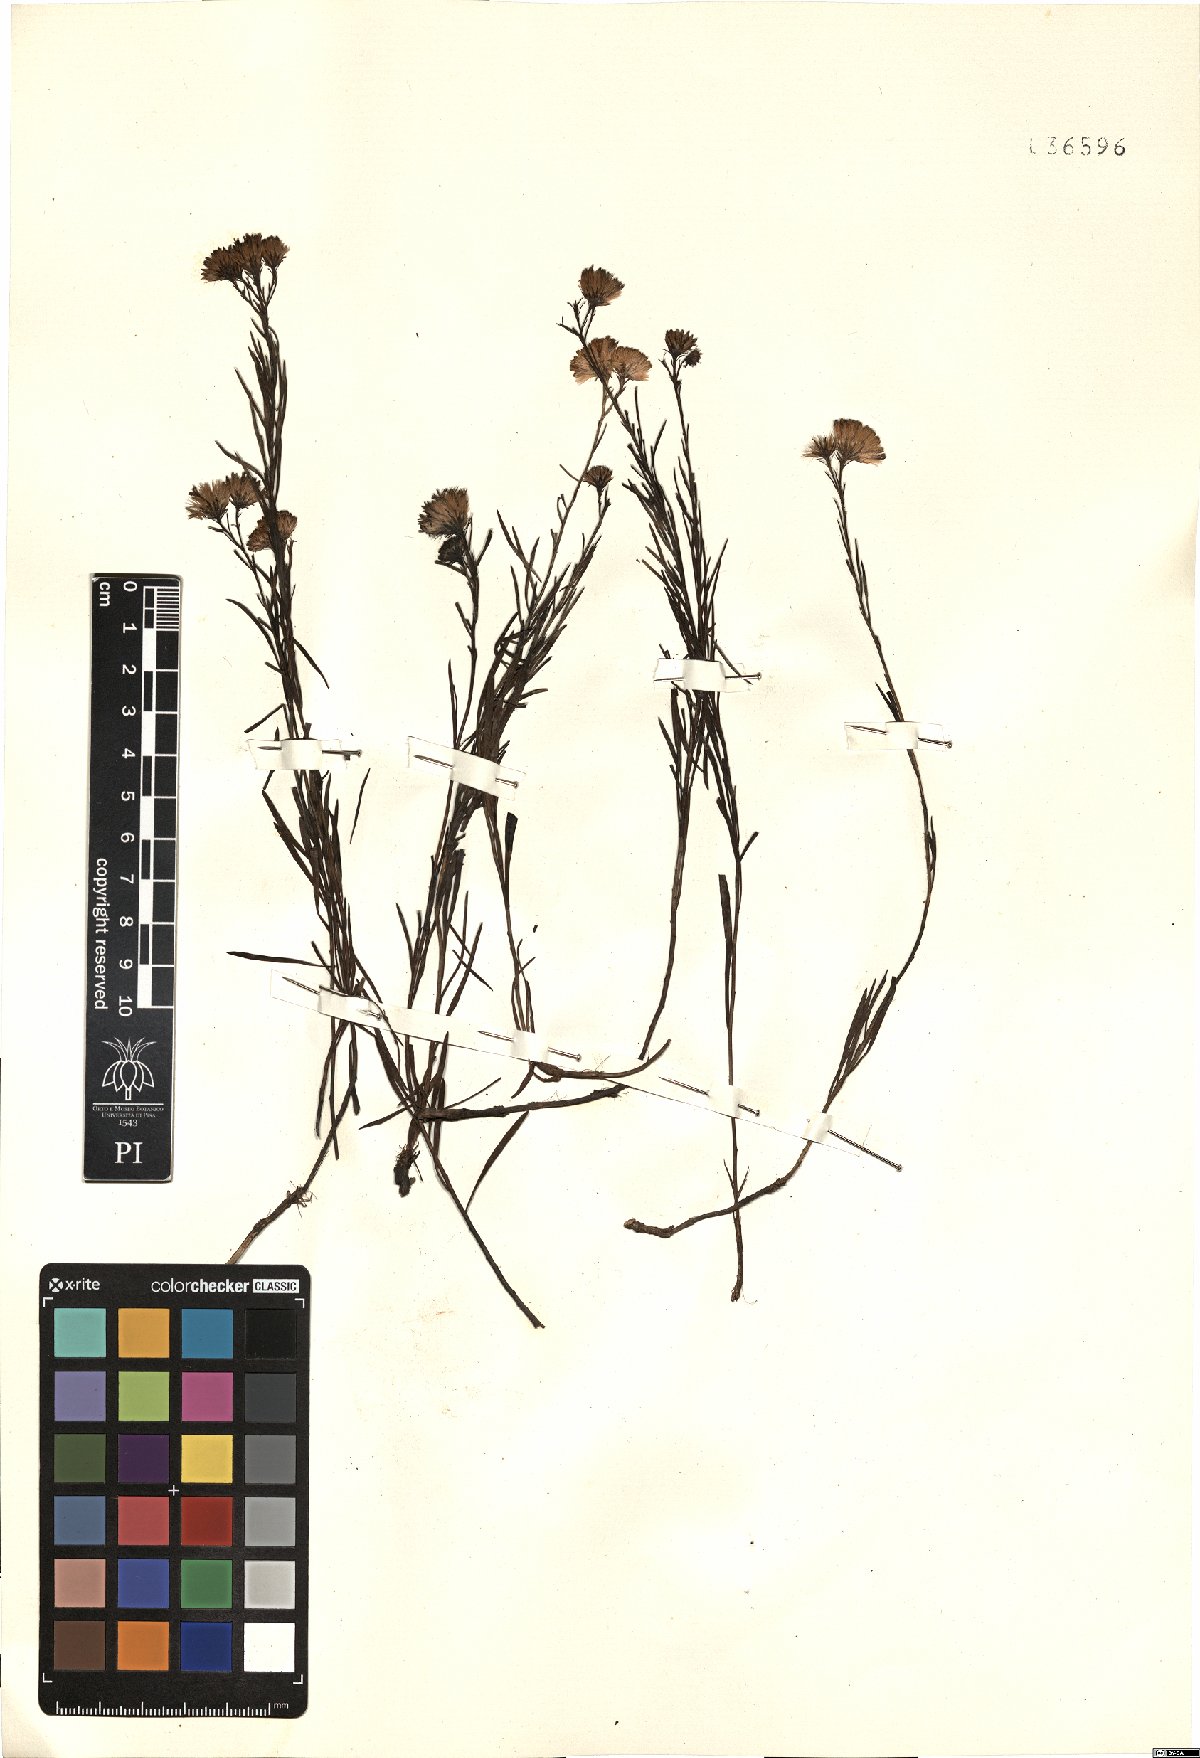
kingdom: Plantae
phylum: Tracheophyta
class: Magnoliopsida
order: Asterales
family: Asteraceae
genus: Aster
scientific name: Aster
